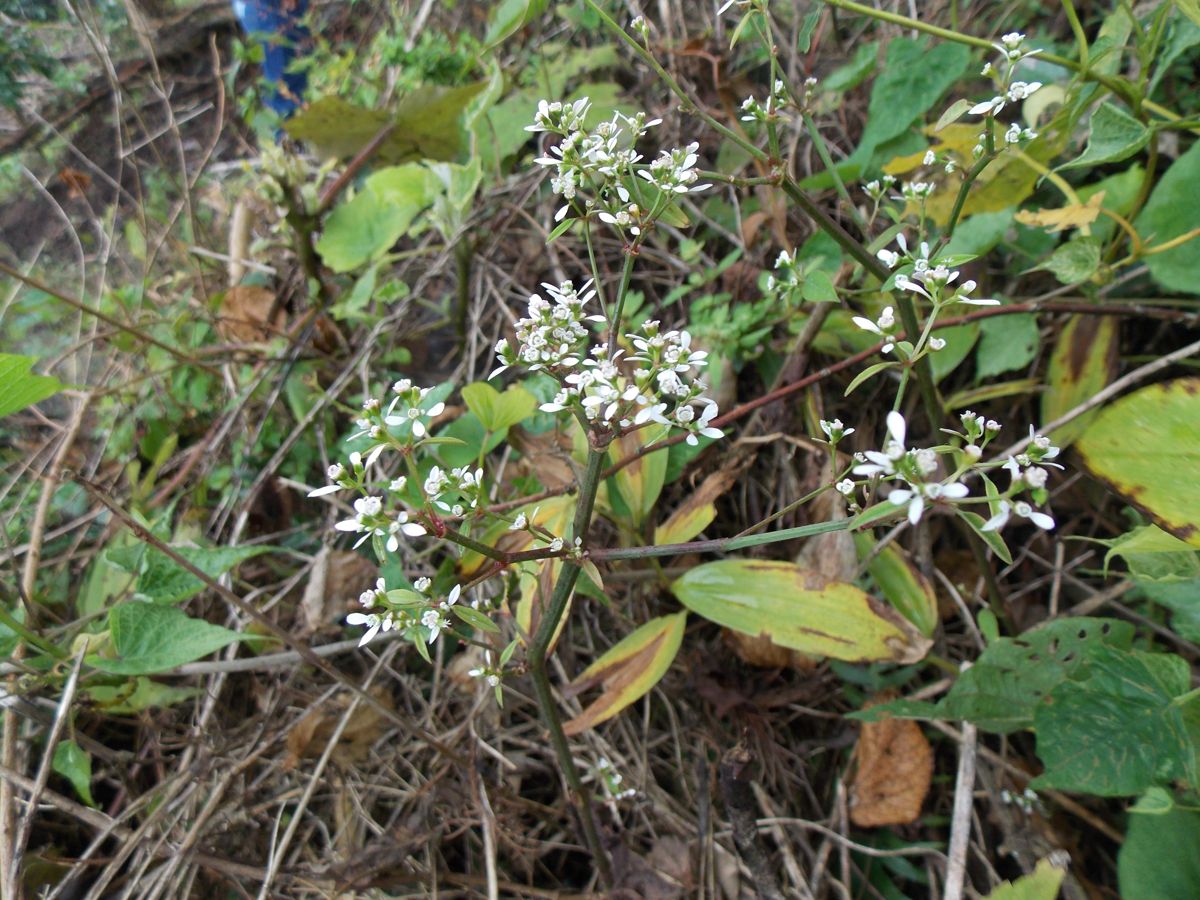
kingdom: Plantae
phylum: Tracheophyta
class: Magnoliopsida
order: Malpighiales
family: Euphorbiaceae
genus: Euphorbia
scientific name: Euphorbia triphylla
